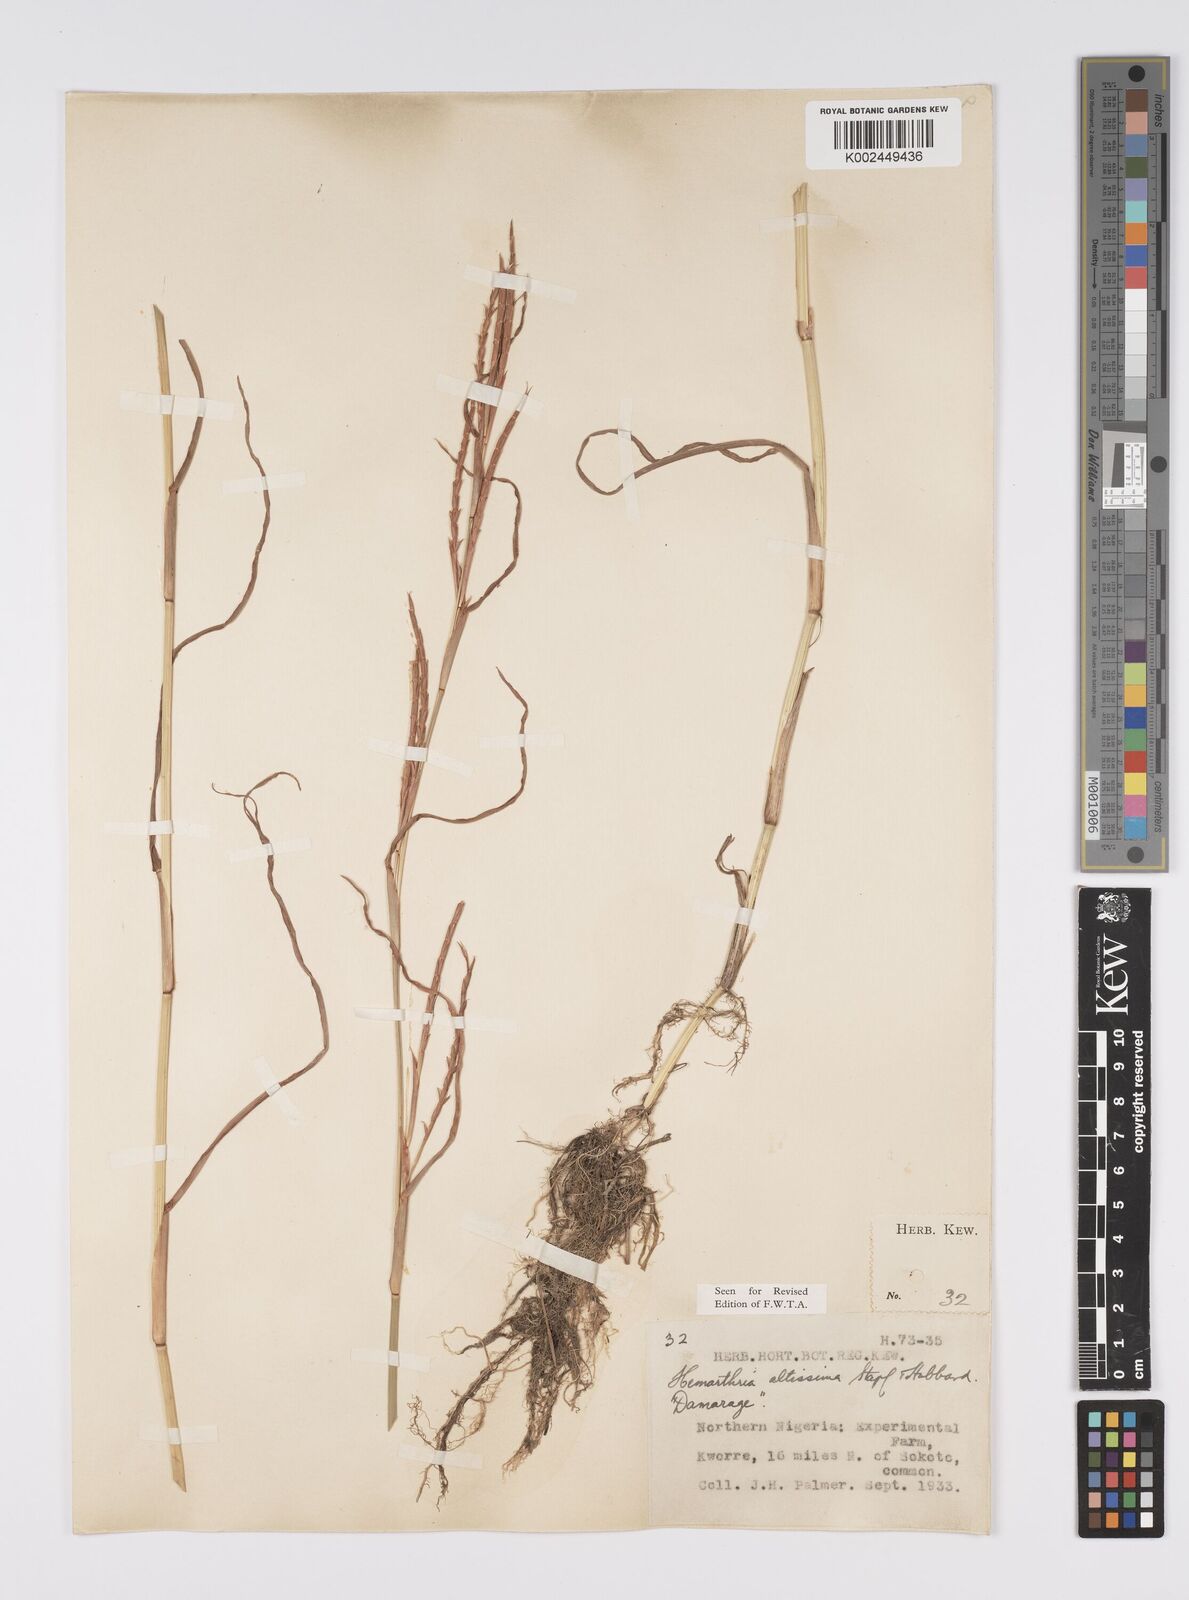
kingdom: Plantae
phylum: Tracheophyta
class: Liliopsida
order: Poales
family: Poaceae
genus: Hemarthria
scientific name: Hemarthria altissima
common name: African jointgrass
